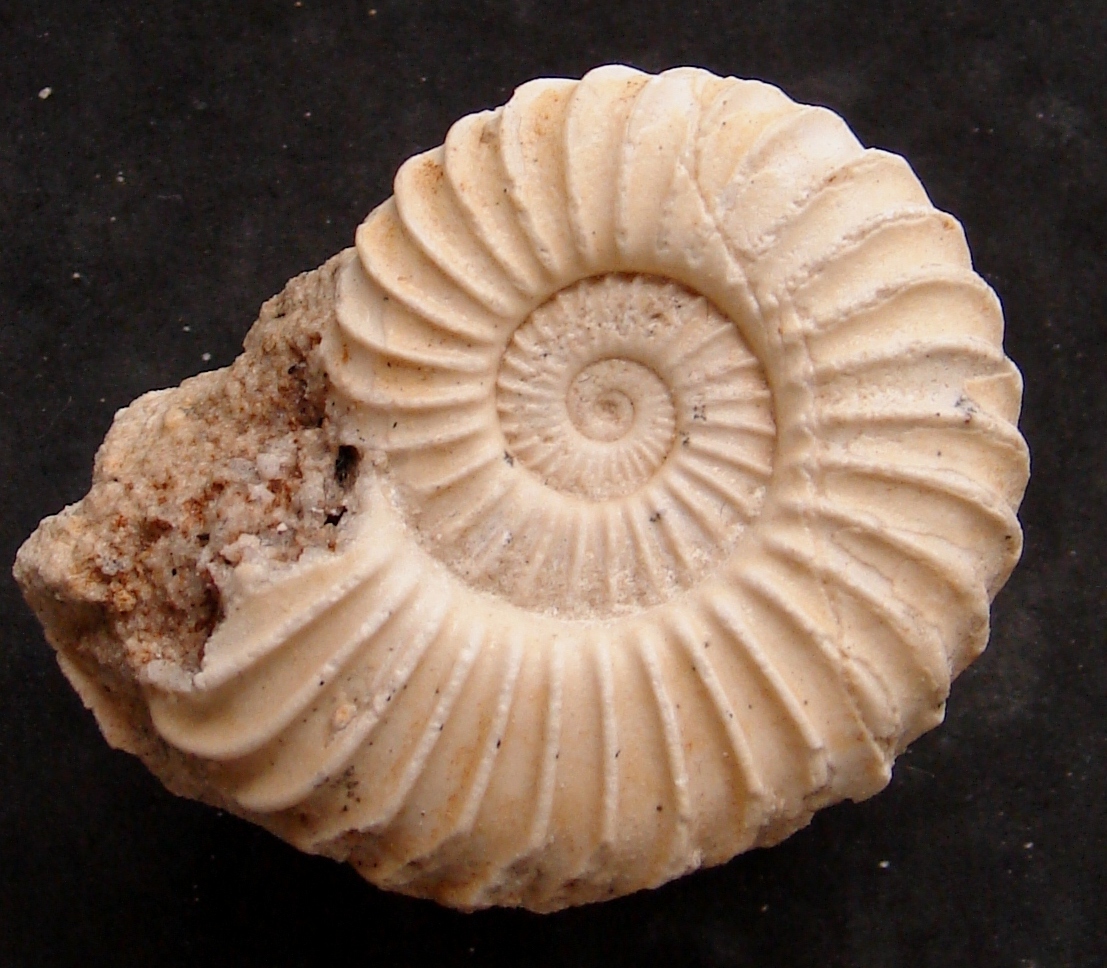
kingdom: Plantae
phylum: Bryophyta
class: Bryopsida
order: Orthotrichales
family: Orthotrichaceae
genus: Schlotheimia
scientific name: Schlotheimia angulosa
